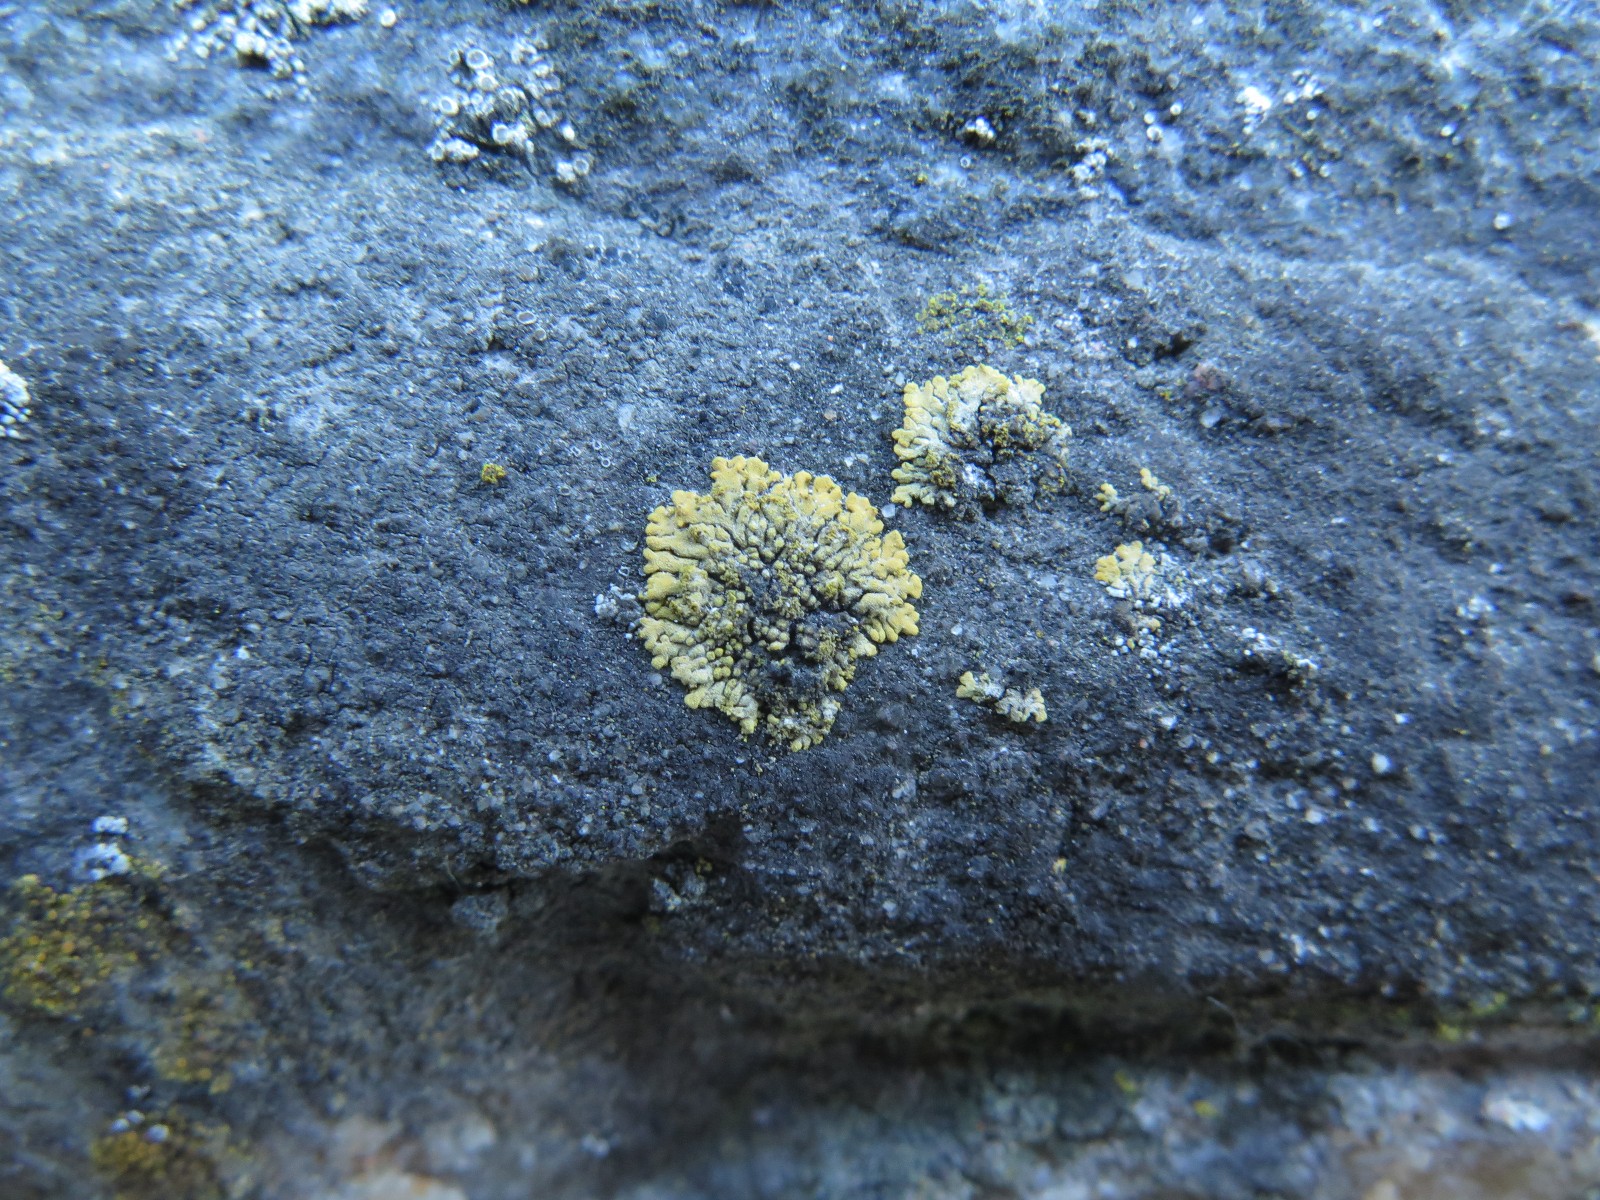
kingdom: Fungi
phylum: Ascomycota
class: Lecanoromycetes
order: Teloschistales
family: Teloschistaceae
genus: Calogaya
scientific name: Calogaya decipiens
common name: knudret orangelav
